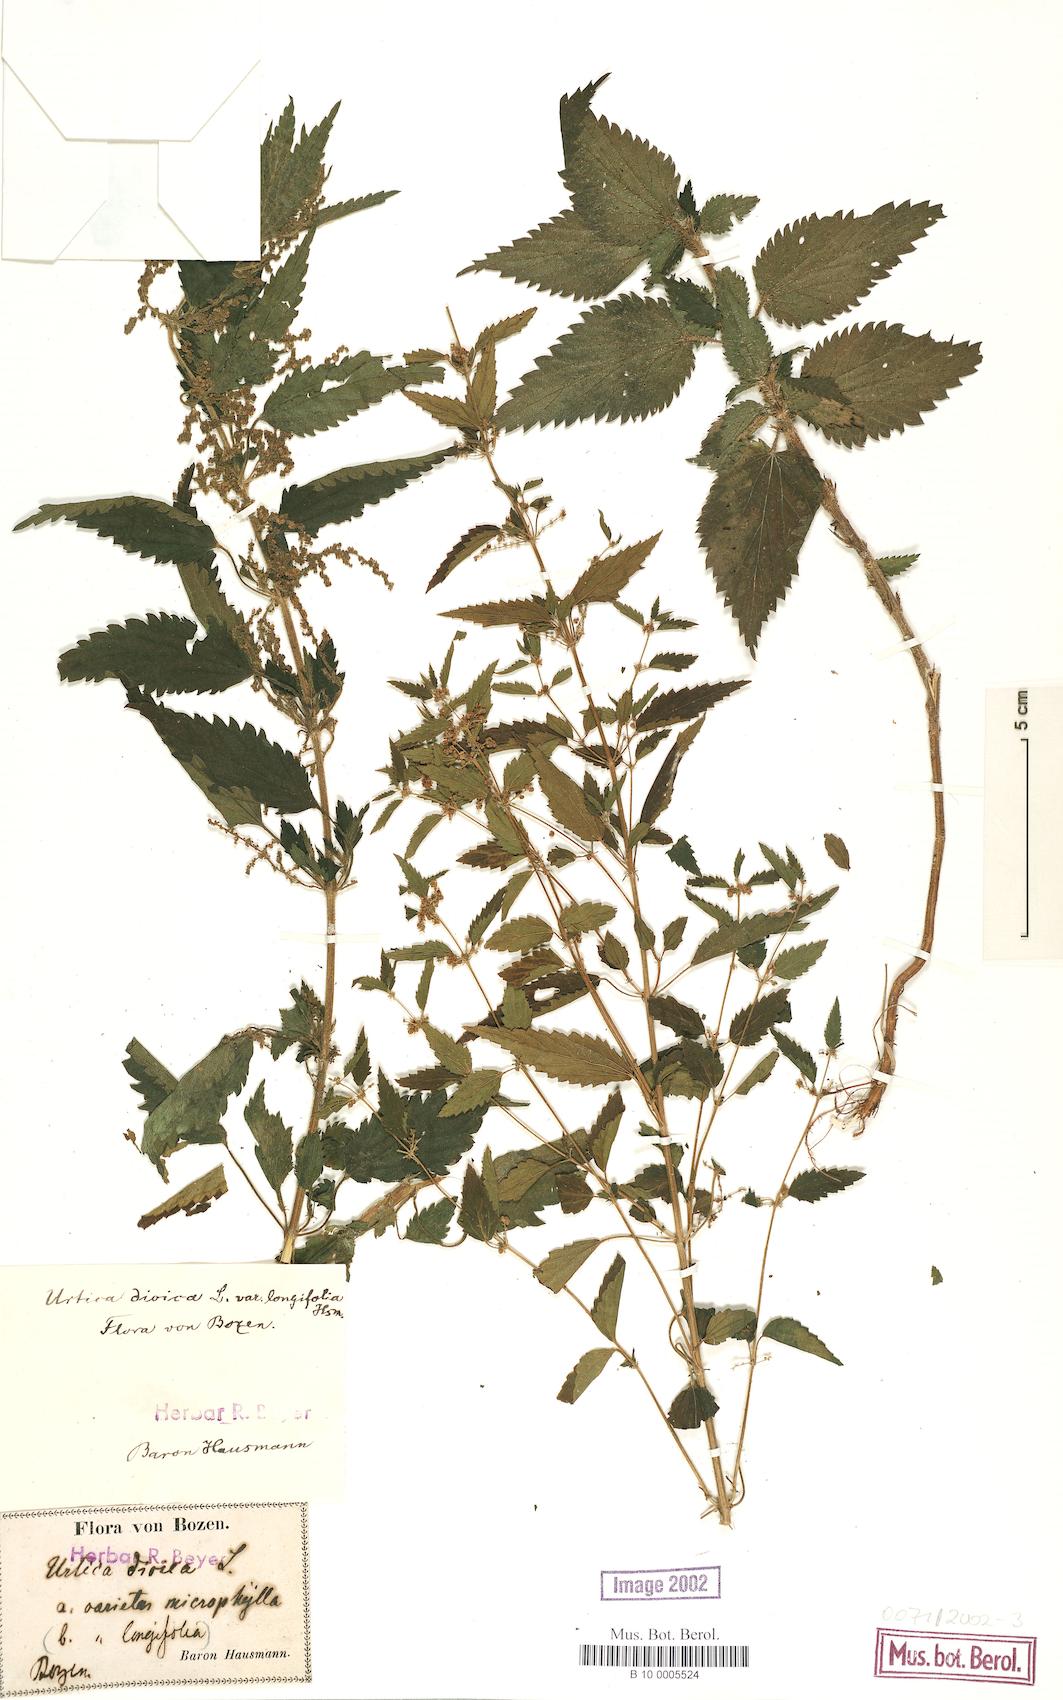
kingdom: Plantae
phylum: Tracheophyta
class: Magnoliopsida
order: Rosales
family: Urticaceae
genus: Urtica
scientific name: Urtica dioica
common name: Common nettle
